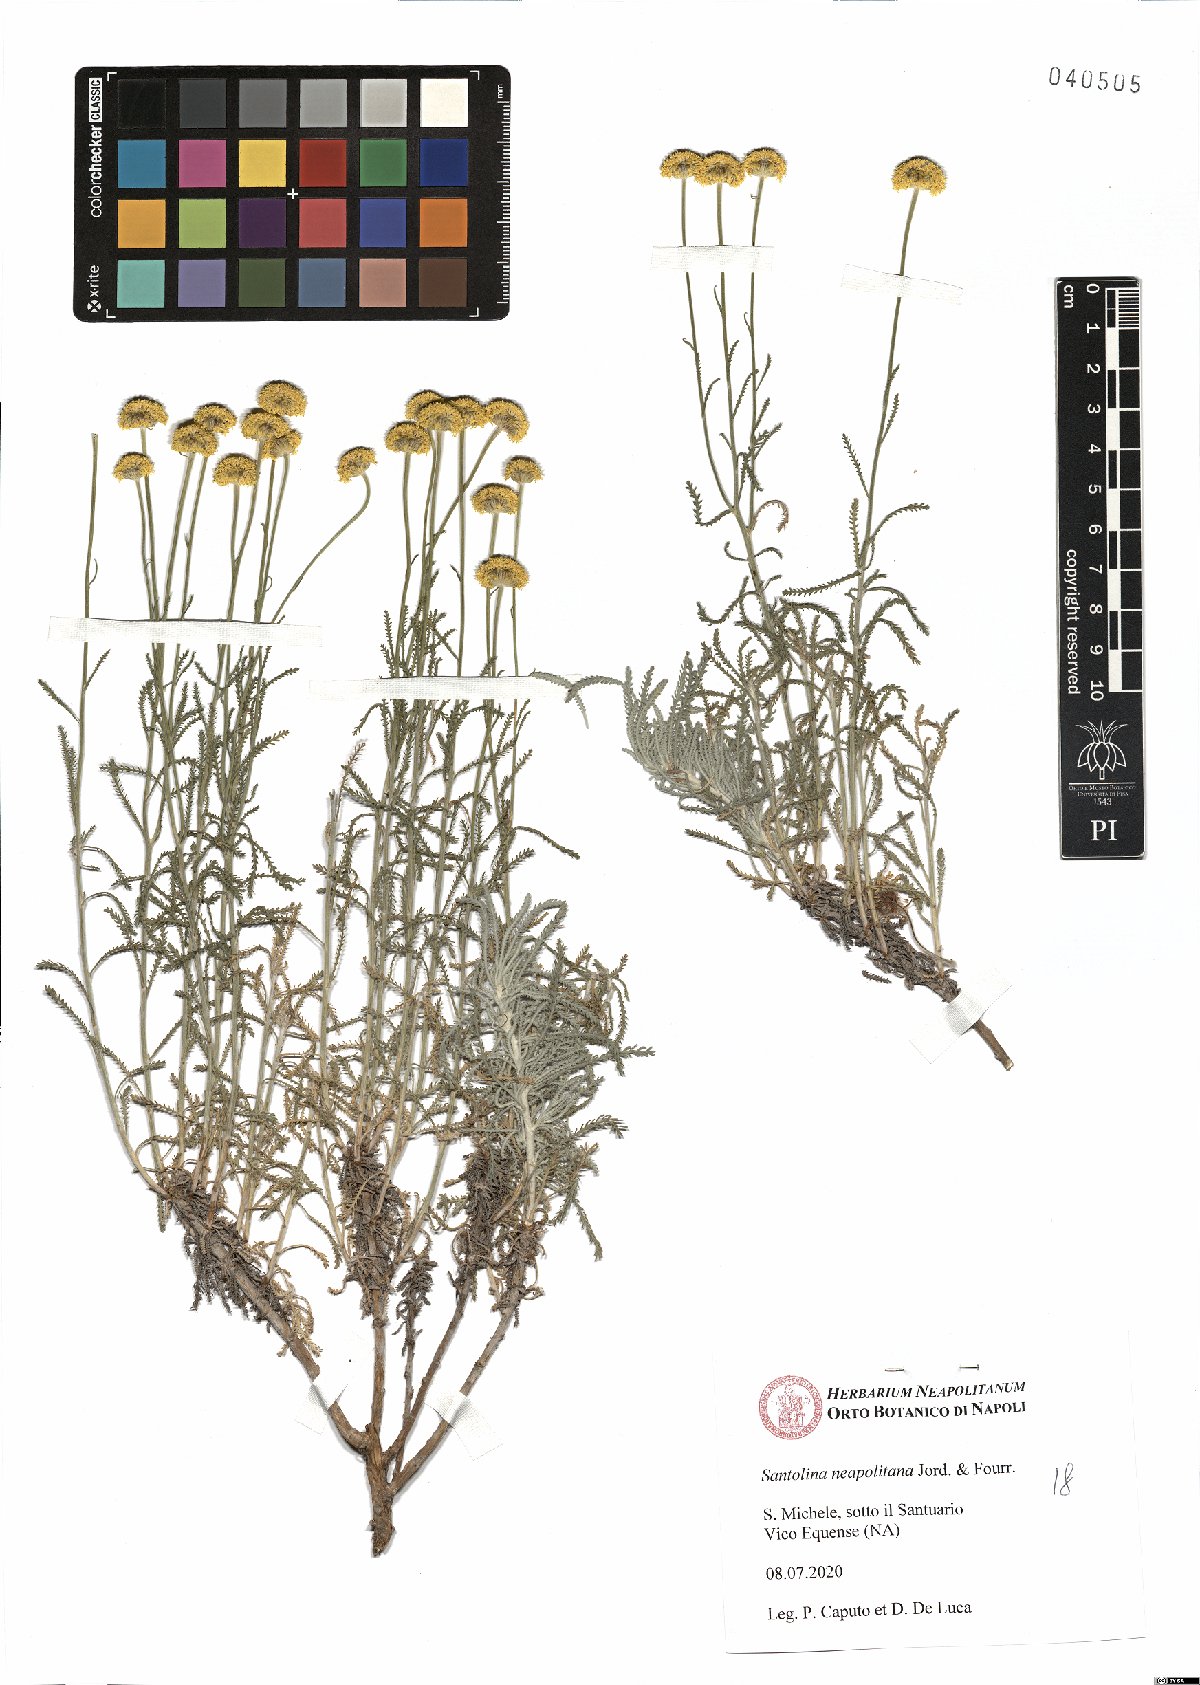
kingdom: Plantae
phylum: Tracheophyta
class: Magnoliopsida
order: Asterales
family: Asteraceae
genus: Santolina
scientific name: Santolina neapolitana
